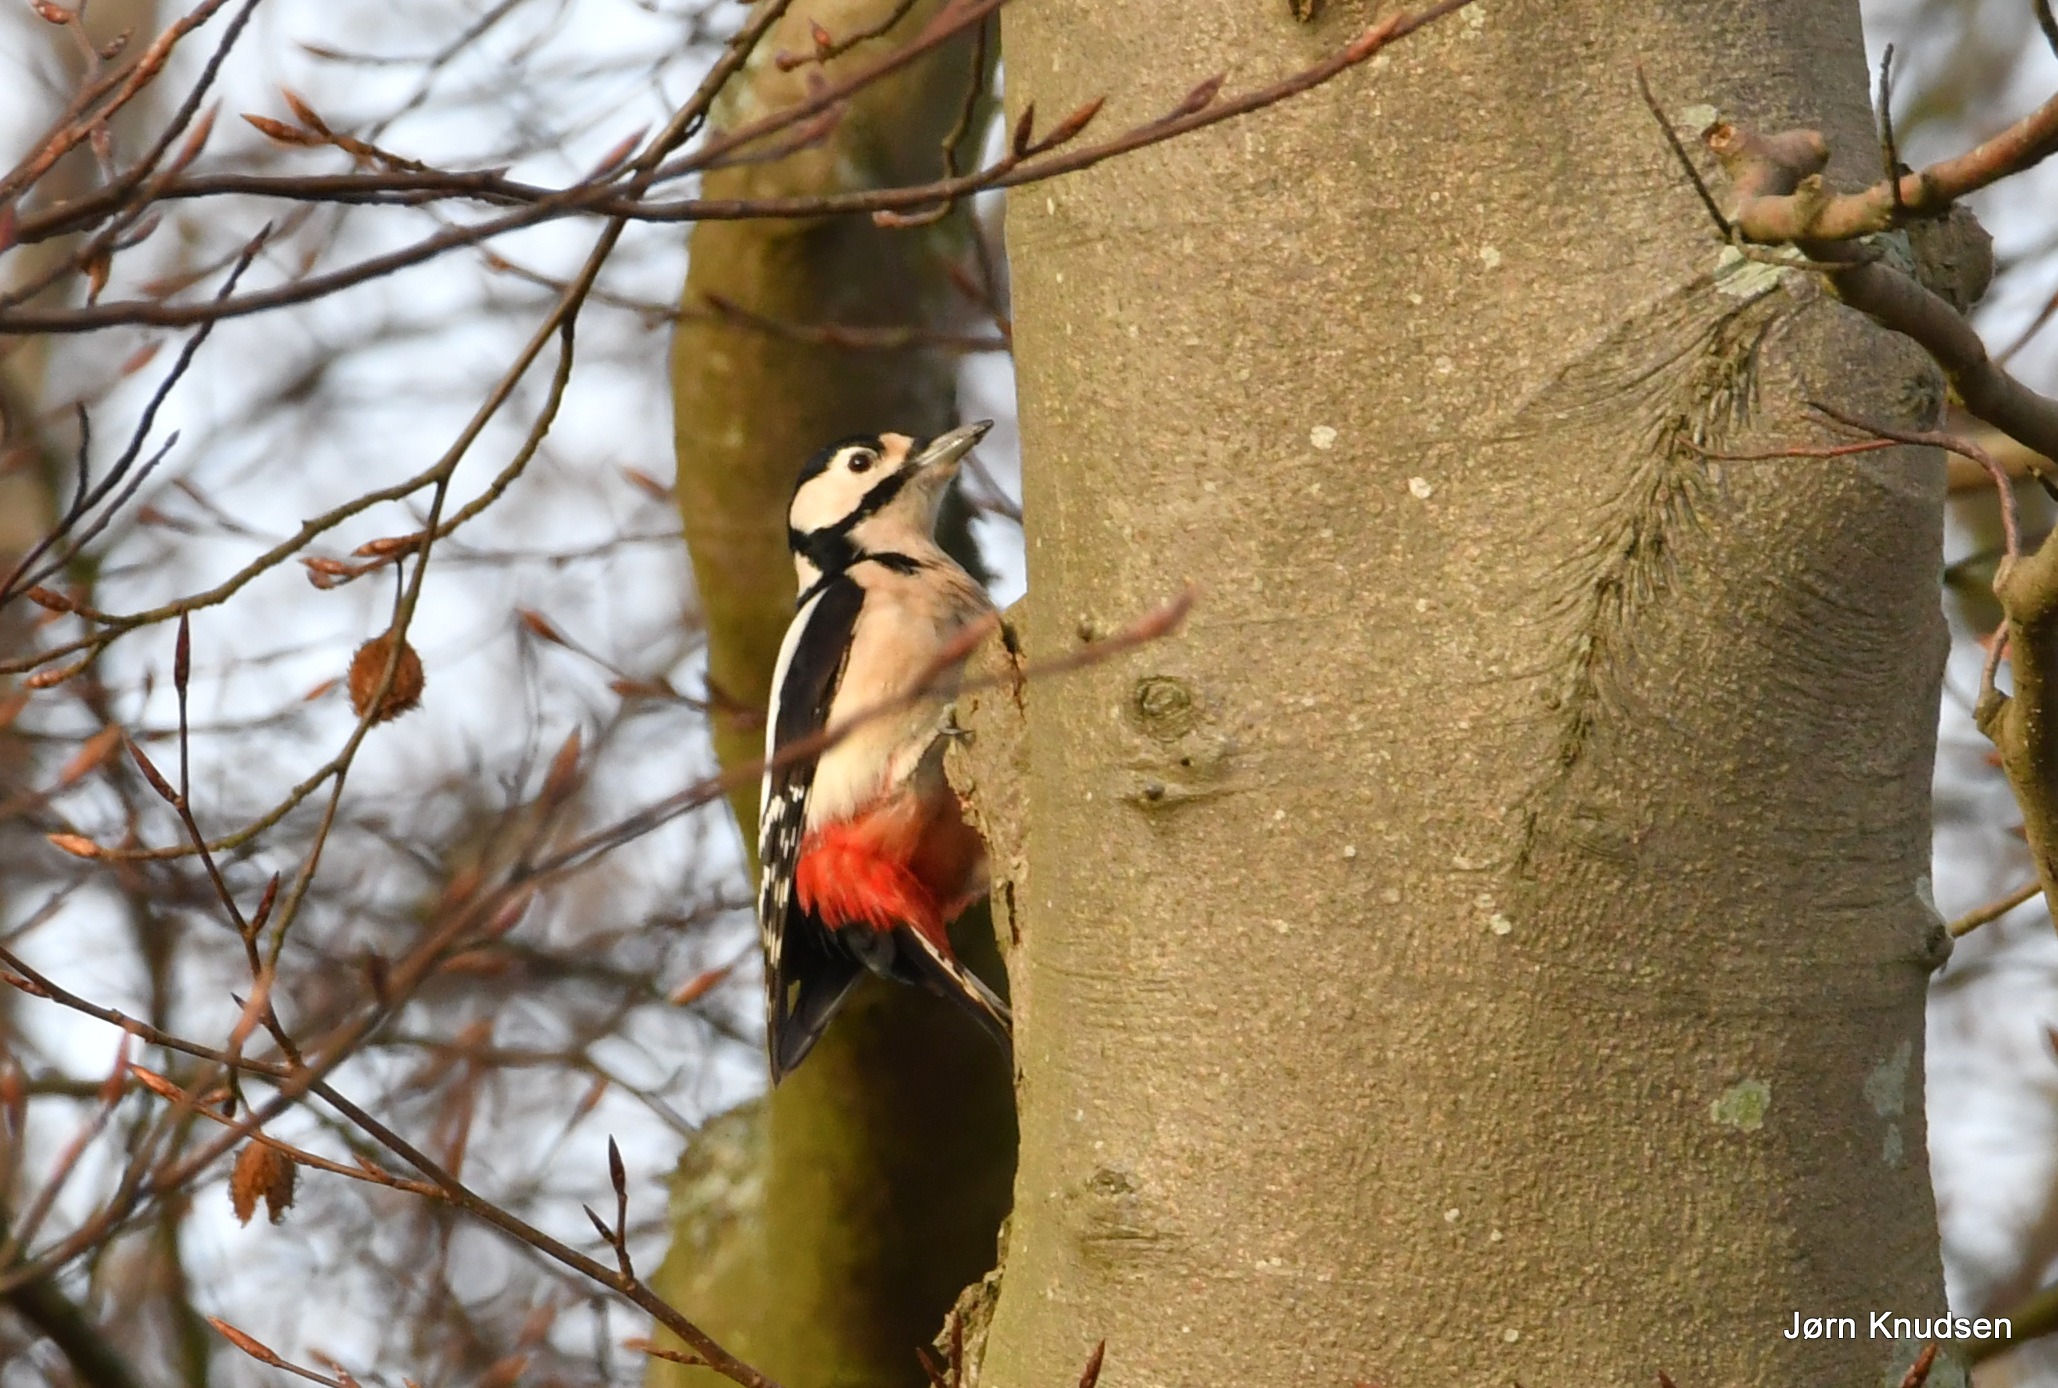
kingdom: Animalia
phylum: Chordata
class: Aves
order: Piciformes
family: Picidae
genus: Dendrocopos
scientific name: Dendrocopos major
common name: Stor flagspætte
